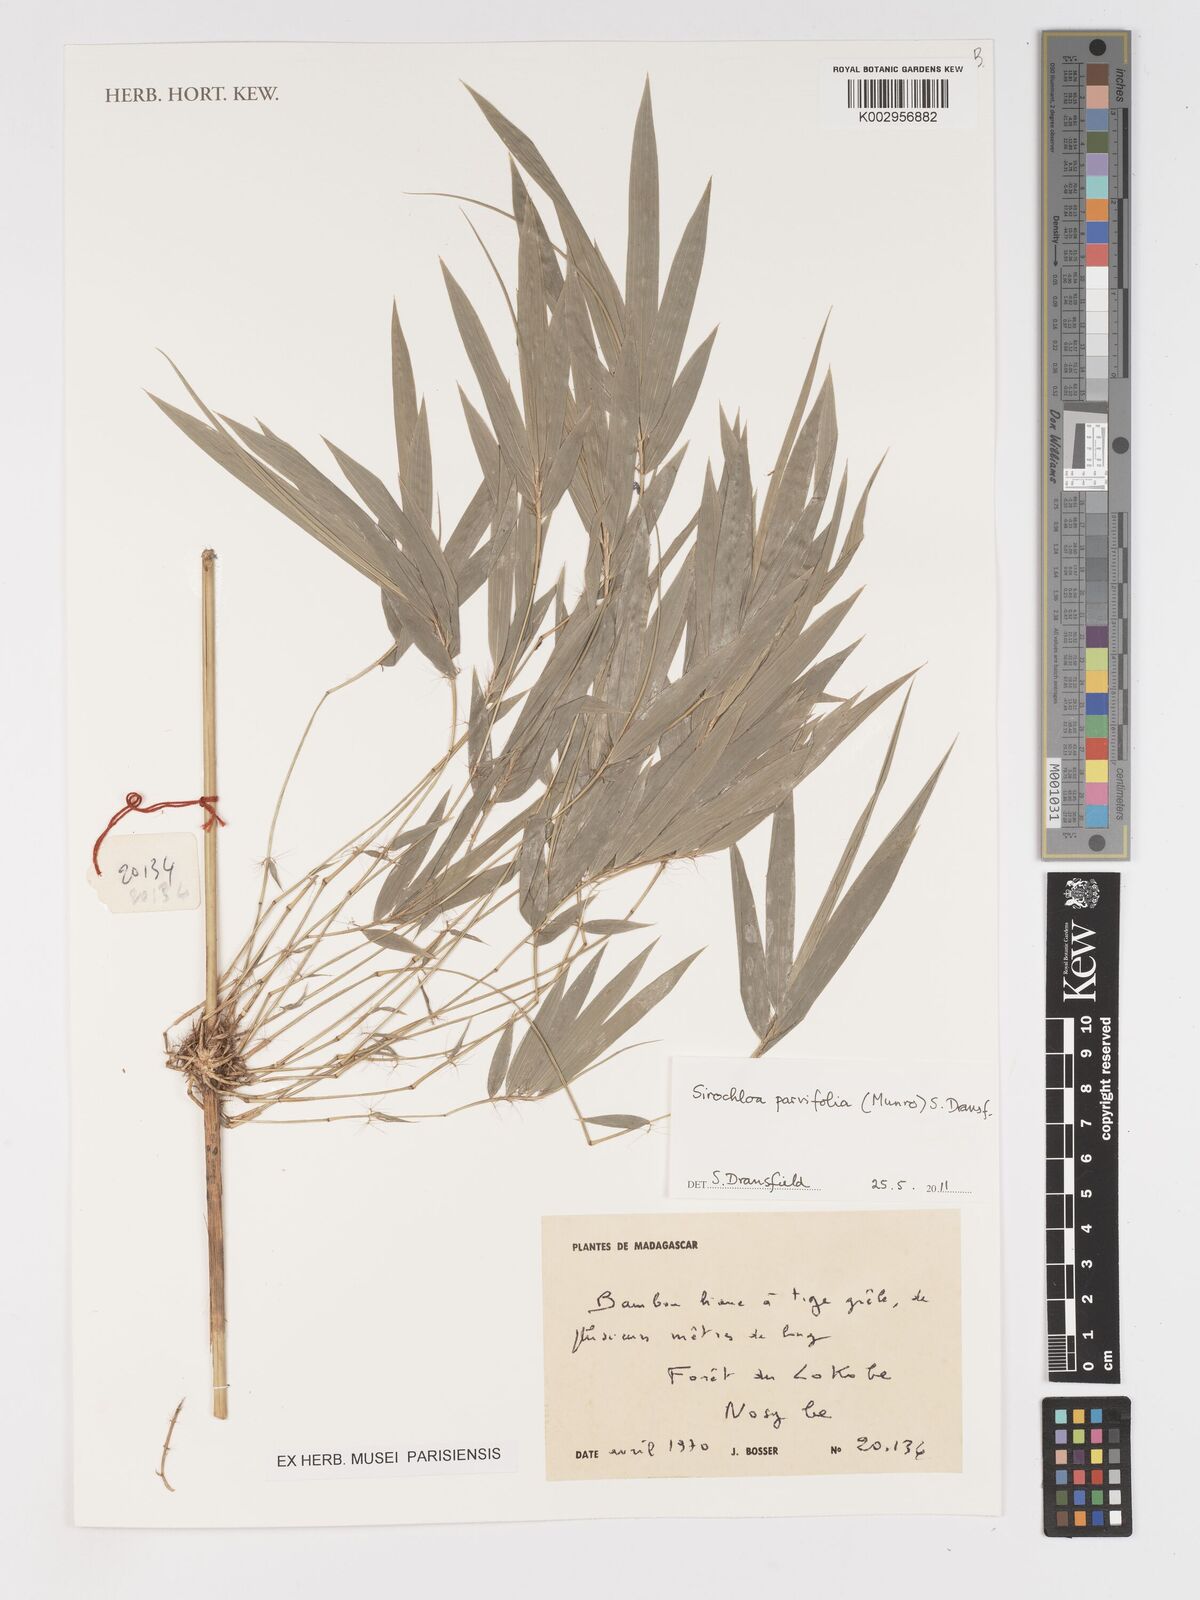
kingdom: Plantae
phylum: Tracheophyta
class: Liliopsida
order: Poales
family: Poaceae
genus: Sirochloa
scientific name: Sirochloa parvifolia
